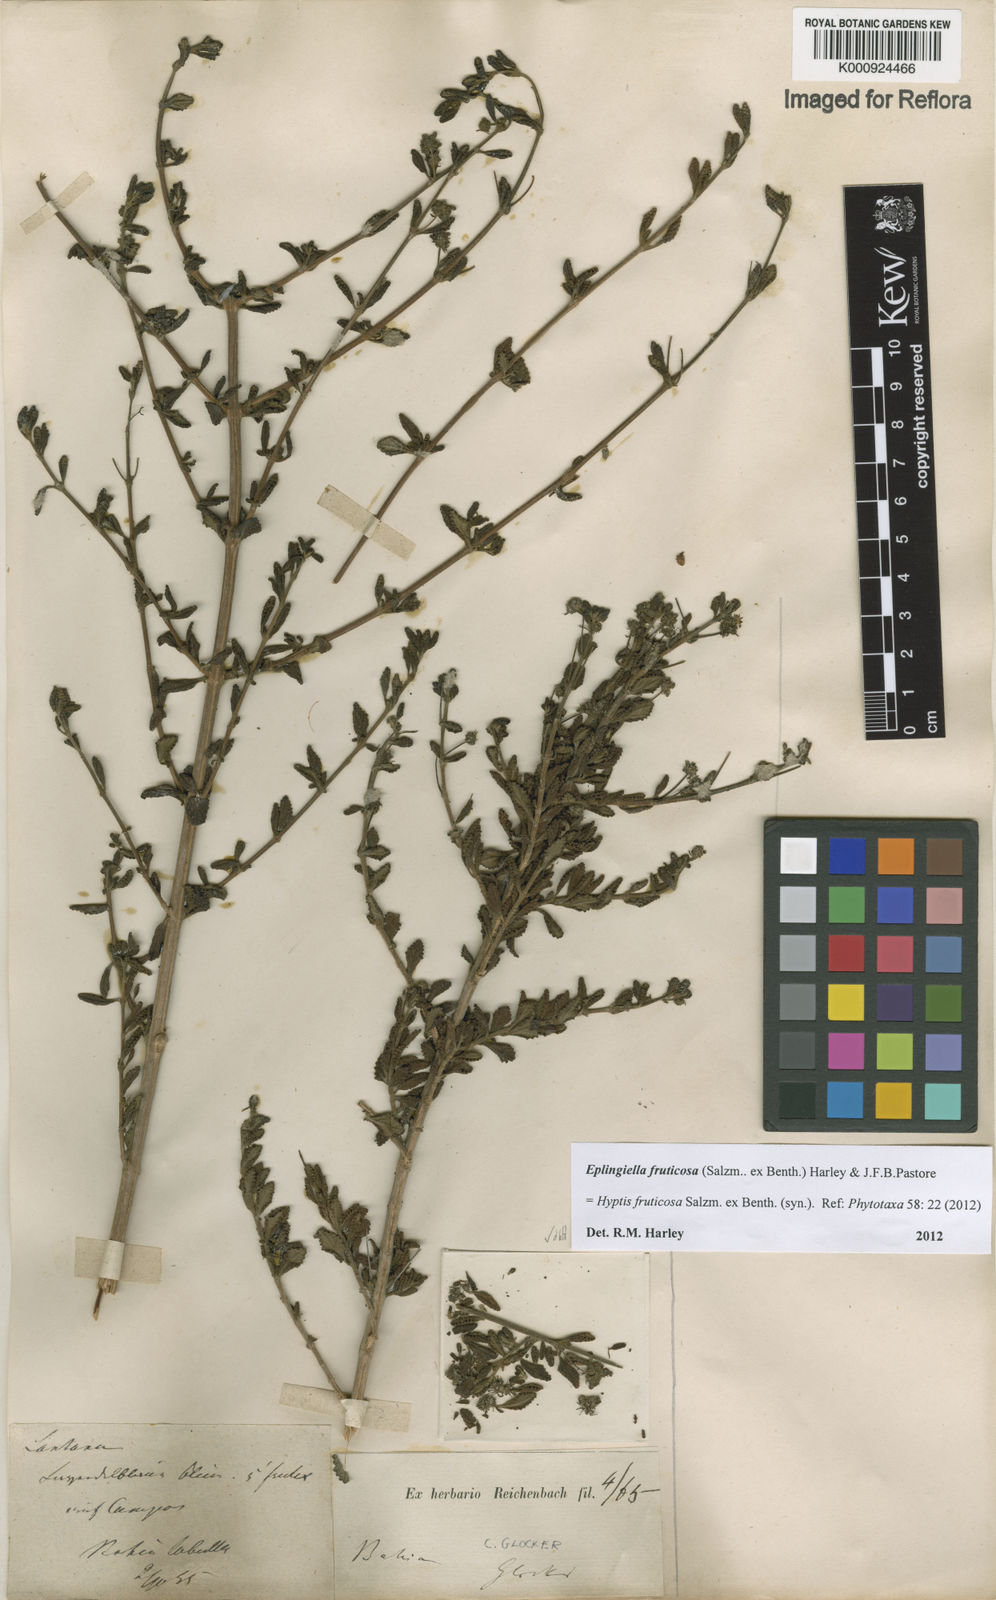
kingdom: Plantae
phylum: Tracheophyta
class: Magnoliopsida
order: Lamiales
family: Lamiaceae
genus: Eplingiella
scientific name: Eplingiella fruticosa
